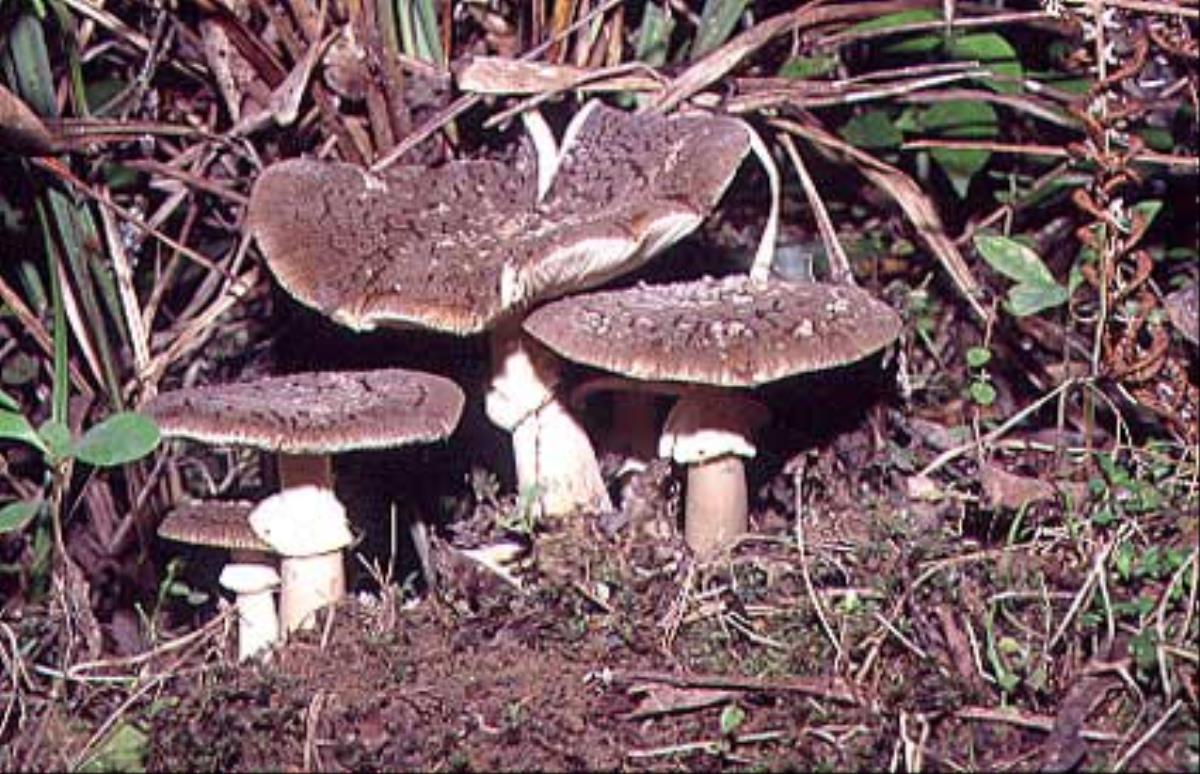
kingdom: Fungi
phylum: Basidiomycota
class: Agaricomycetes
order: Agaricales
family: Amanitaceae
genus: Amanita
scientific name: Amanita nothofagi
